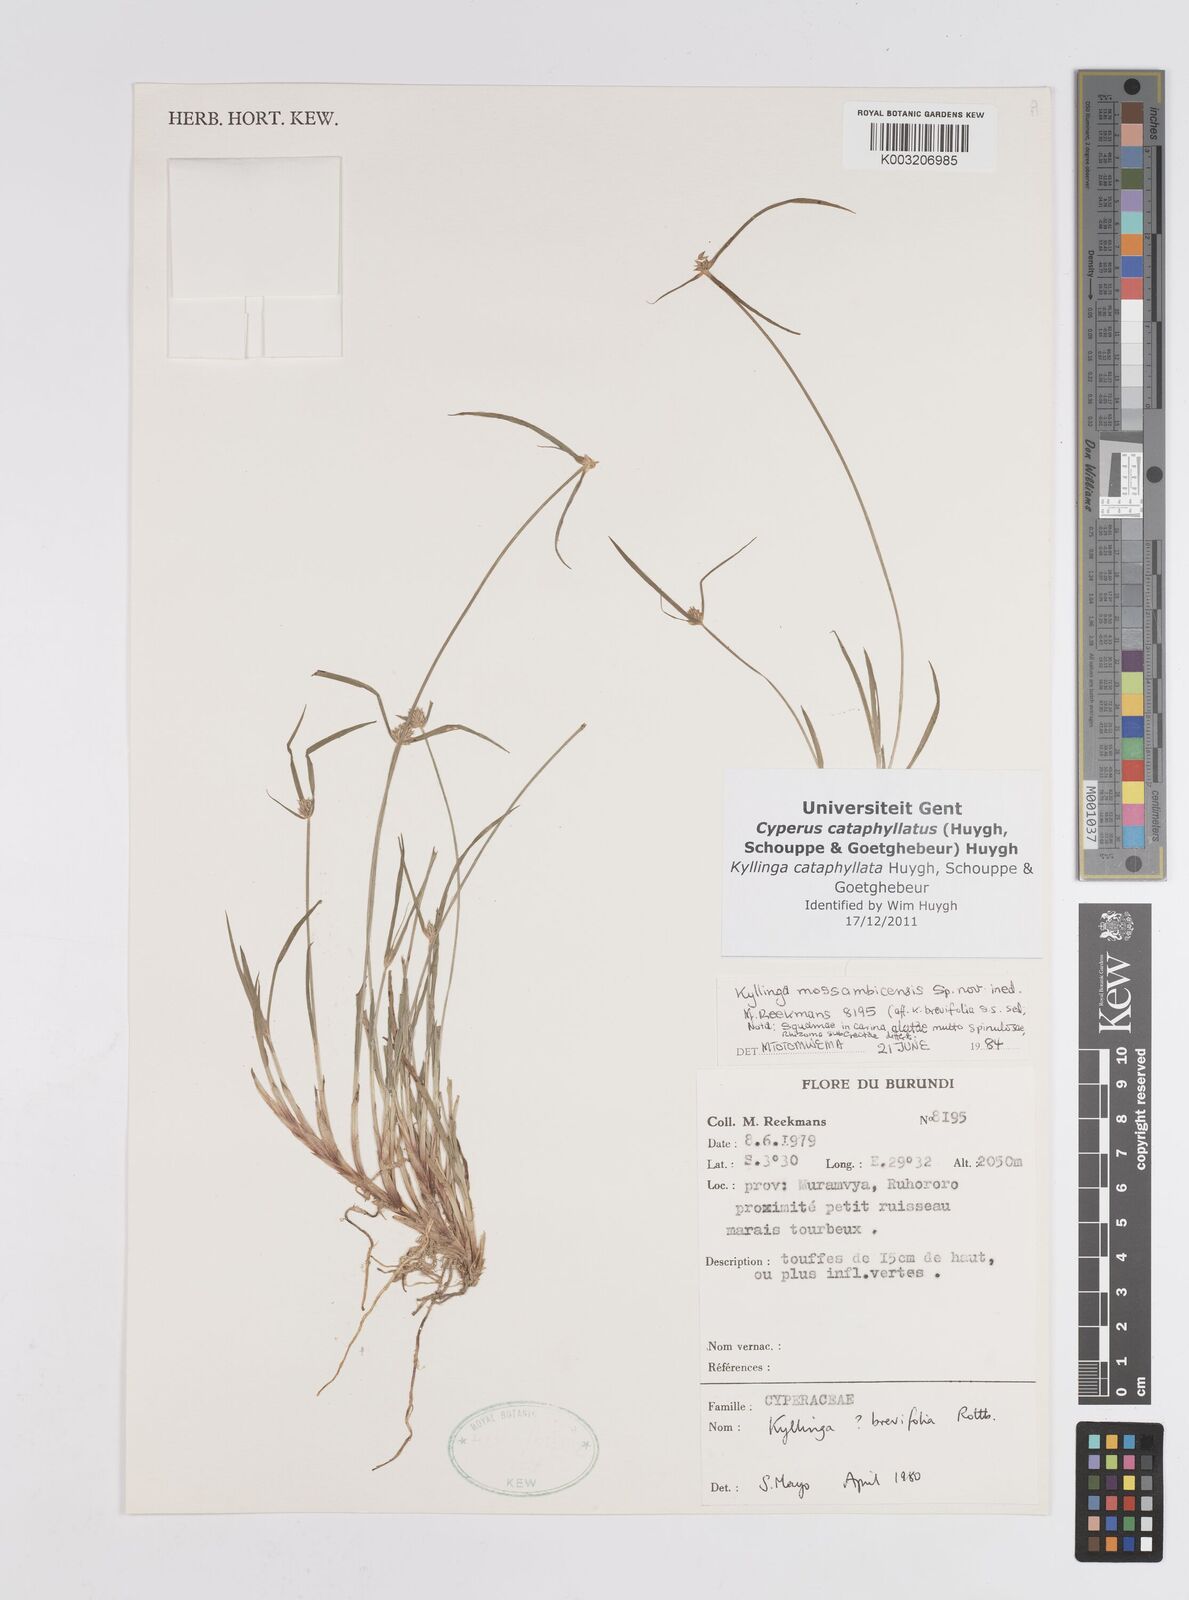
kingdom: Plantae
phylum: Tracheophyta
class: Liliopsida
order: Poales
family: Cyperaceae
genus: Cyperus
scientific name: Cyperus cataphyllatus
